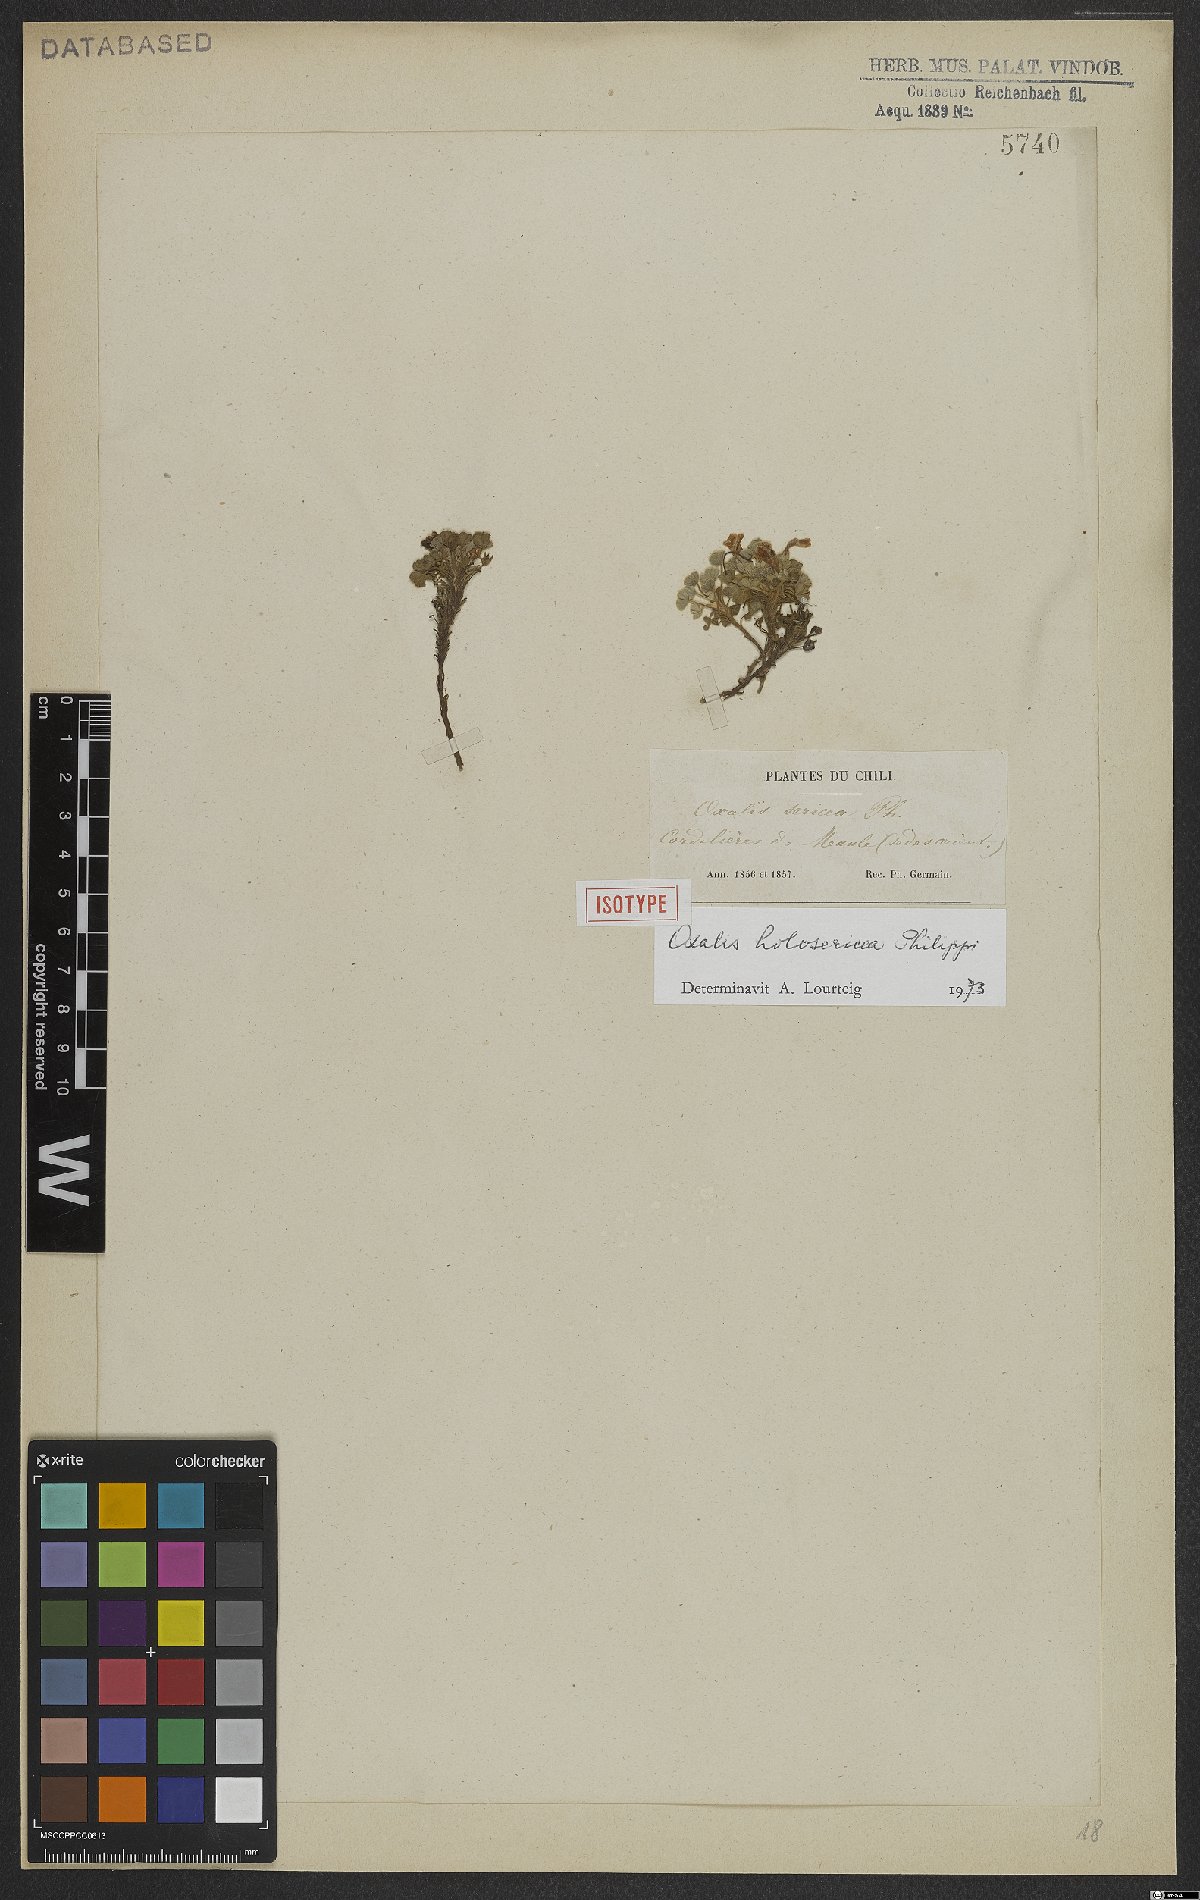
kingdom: Plantae
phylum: Tracheophyta
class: Magnoliopsida
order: Oxalidales
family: Oxalidaceae
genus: Oxalis
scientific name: Oxalis holosericea
